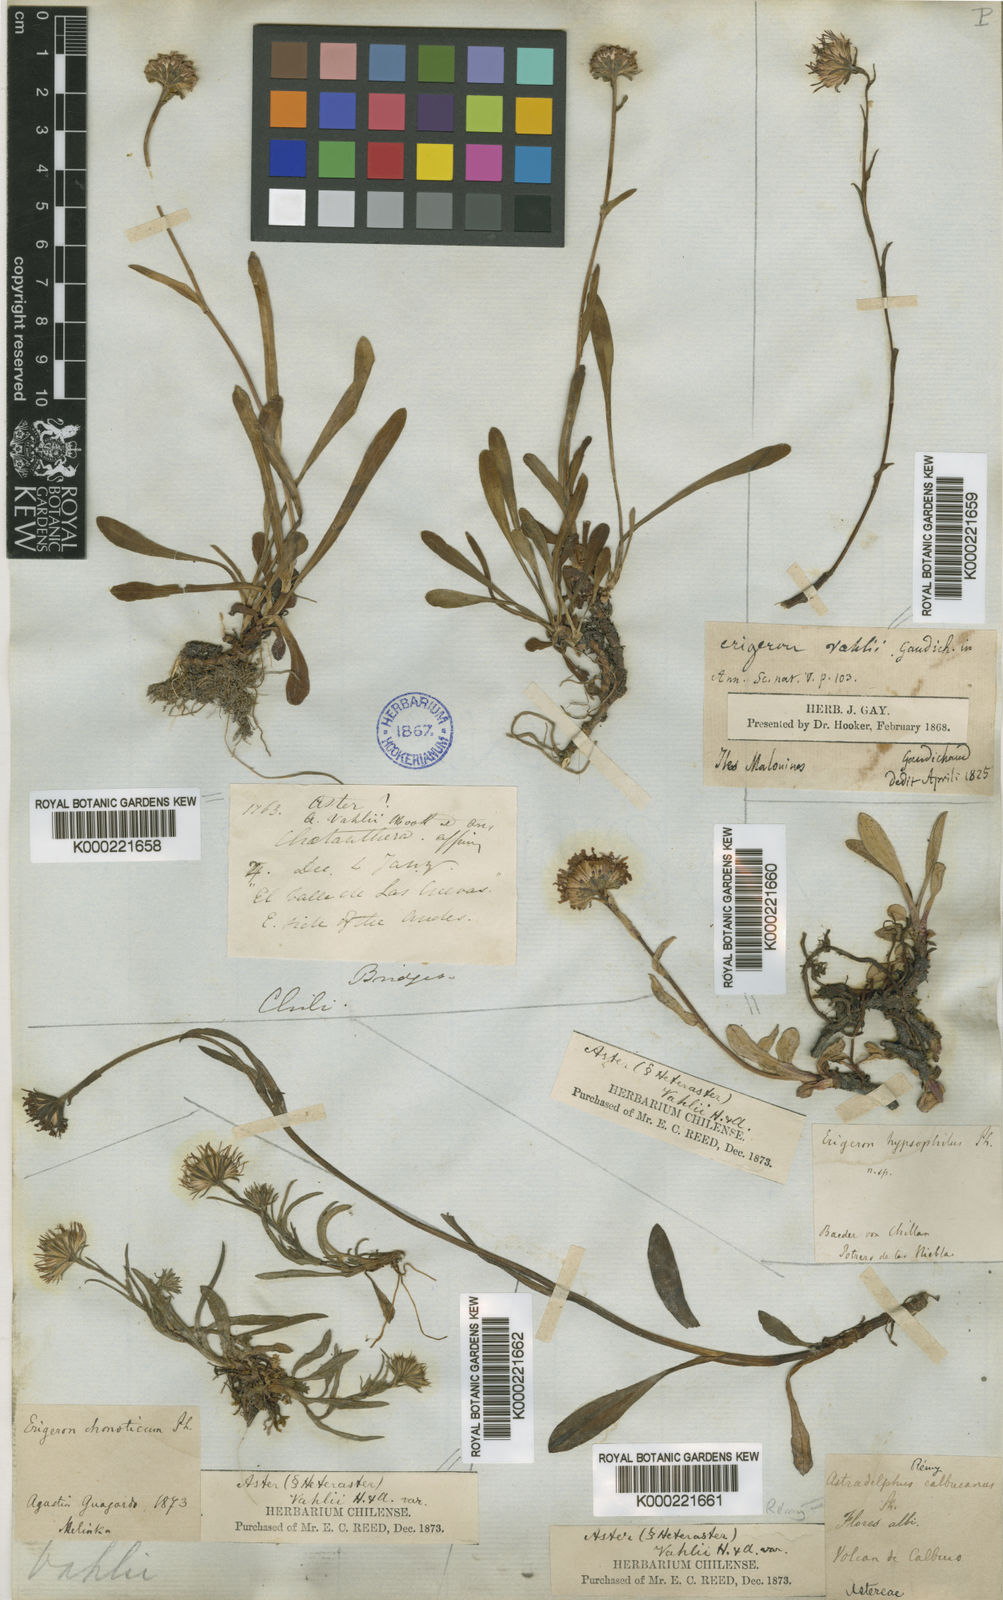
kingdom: Plantae
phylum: Tracheophyta
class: Magnoliopsida
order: Asterales
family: Asteraceae
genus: Symphyotrichum
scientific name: Symphyotrichum vahlii
